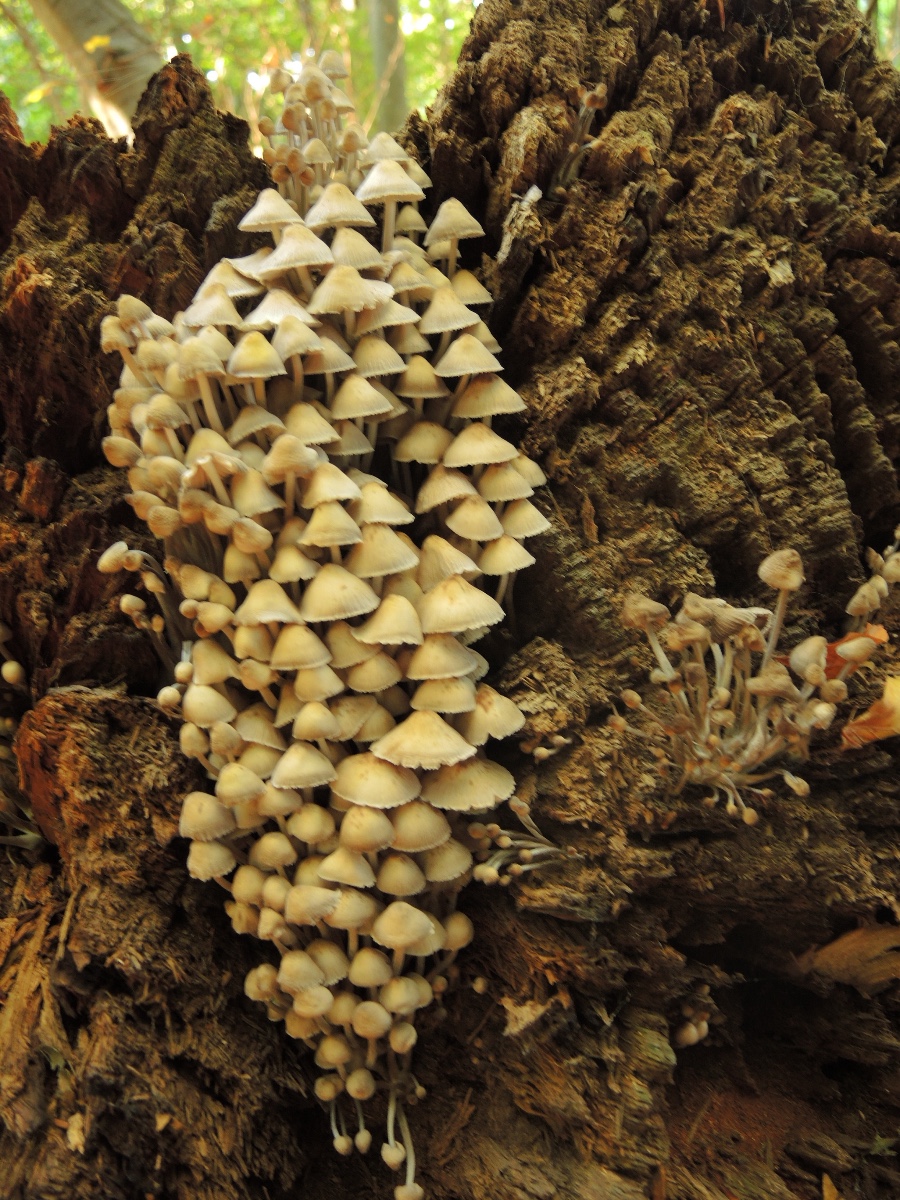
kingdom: Fungi
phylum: Basidiomycota
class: Agaricomycetes
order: Agaricales
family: Mycenaceae
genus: Mycena
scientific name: Mycena inclinata
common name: nikkende huesvamp
